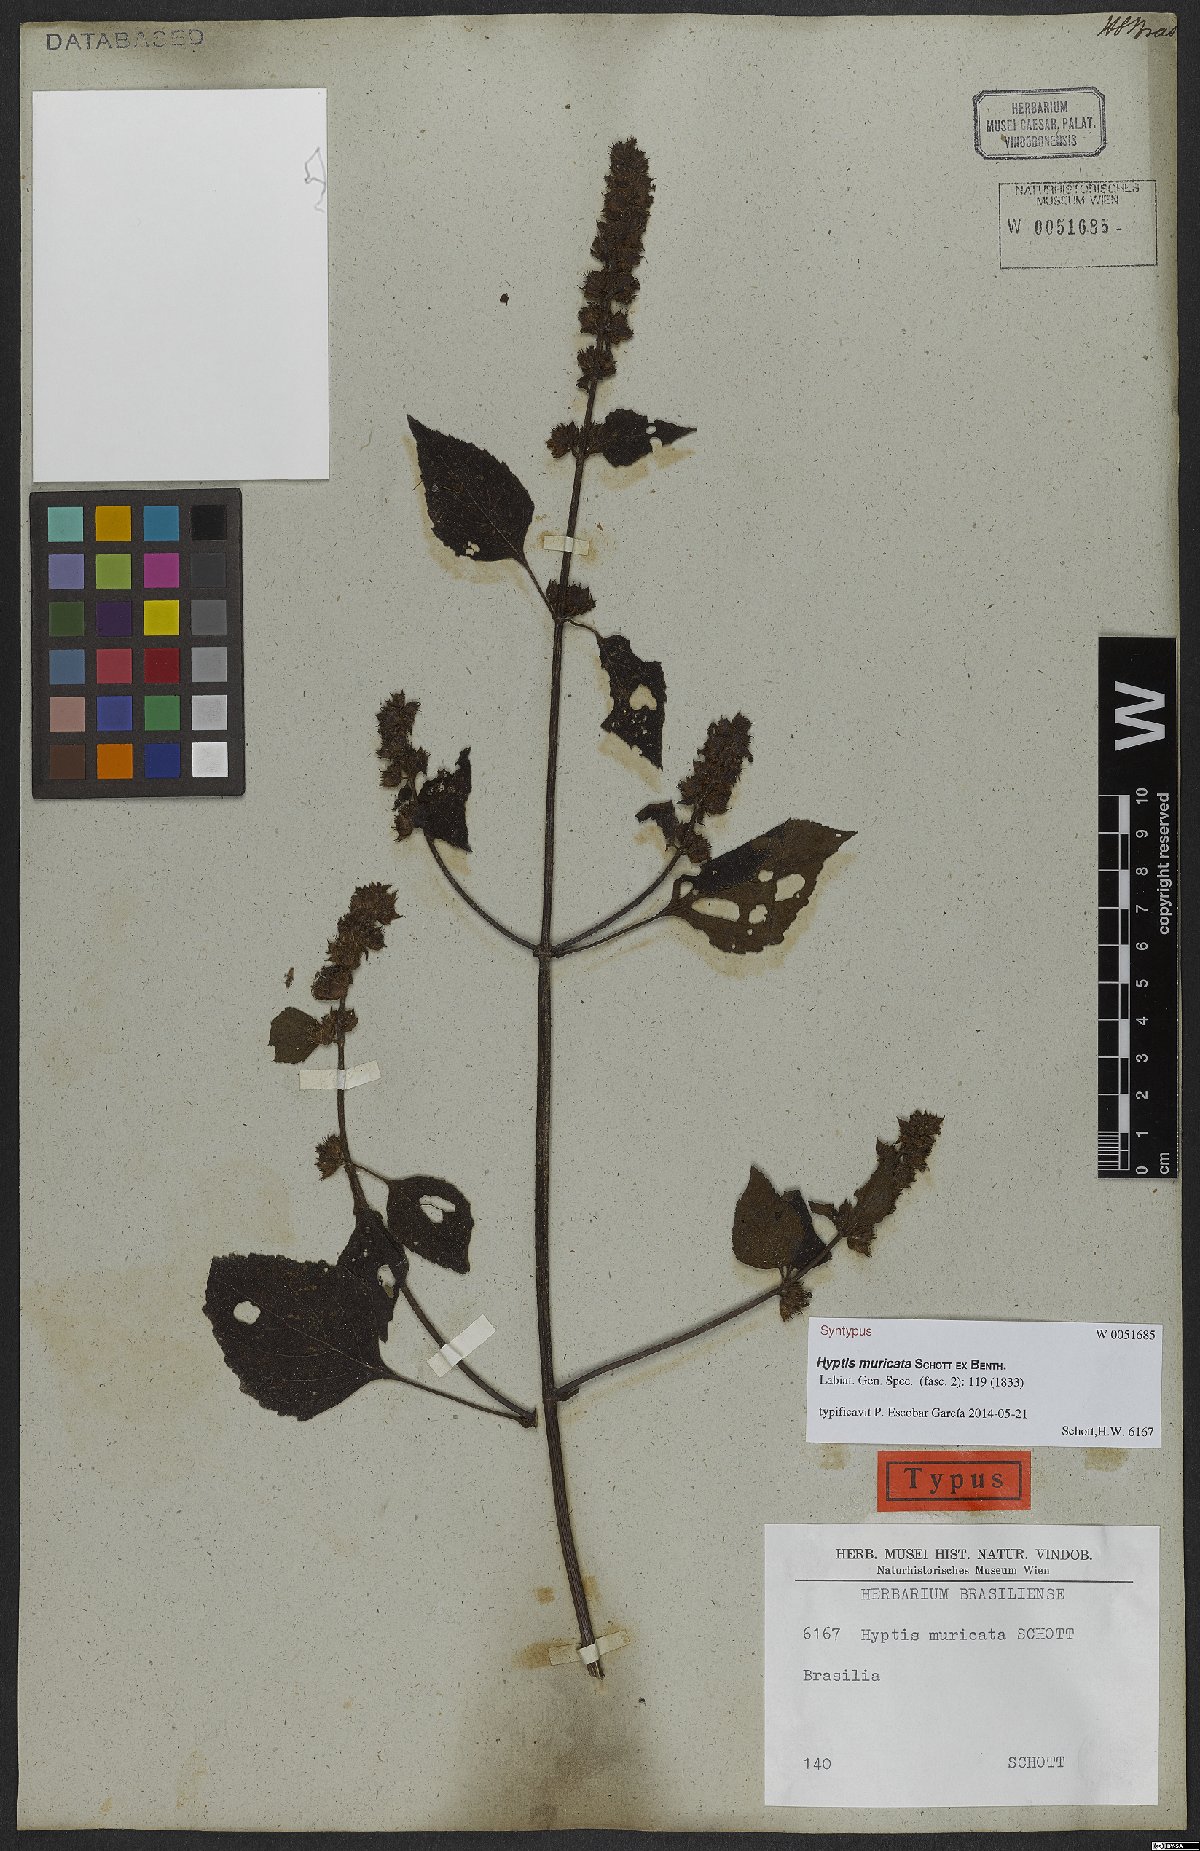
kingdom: Plantae
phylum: Tracheophyta
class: Magnoliopsida
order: Lamiales
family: Lamiaceae
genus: Cantinoa
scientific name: Cantinoa muricata
